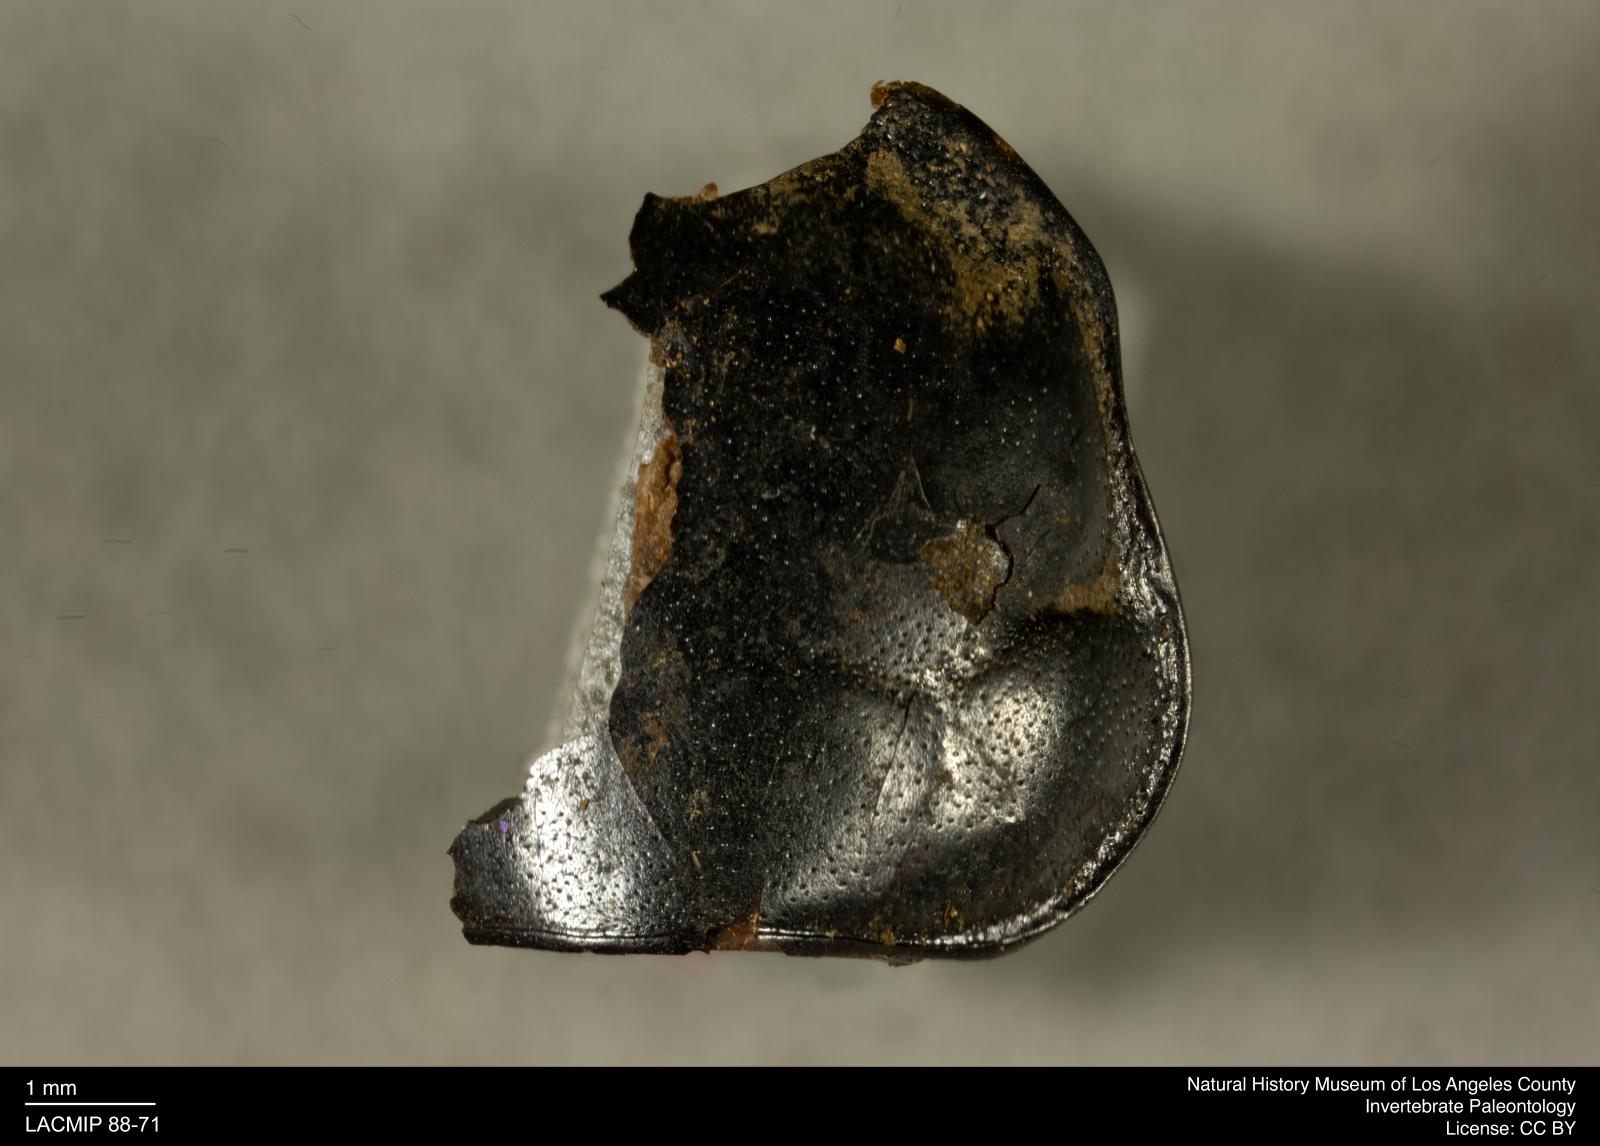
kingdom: Animalia
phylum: Arthropoda
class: Insecta
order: Coleoptera
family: Staphylinidae
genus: Nicrophorus
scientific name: Nicrophorus marginatus
